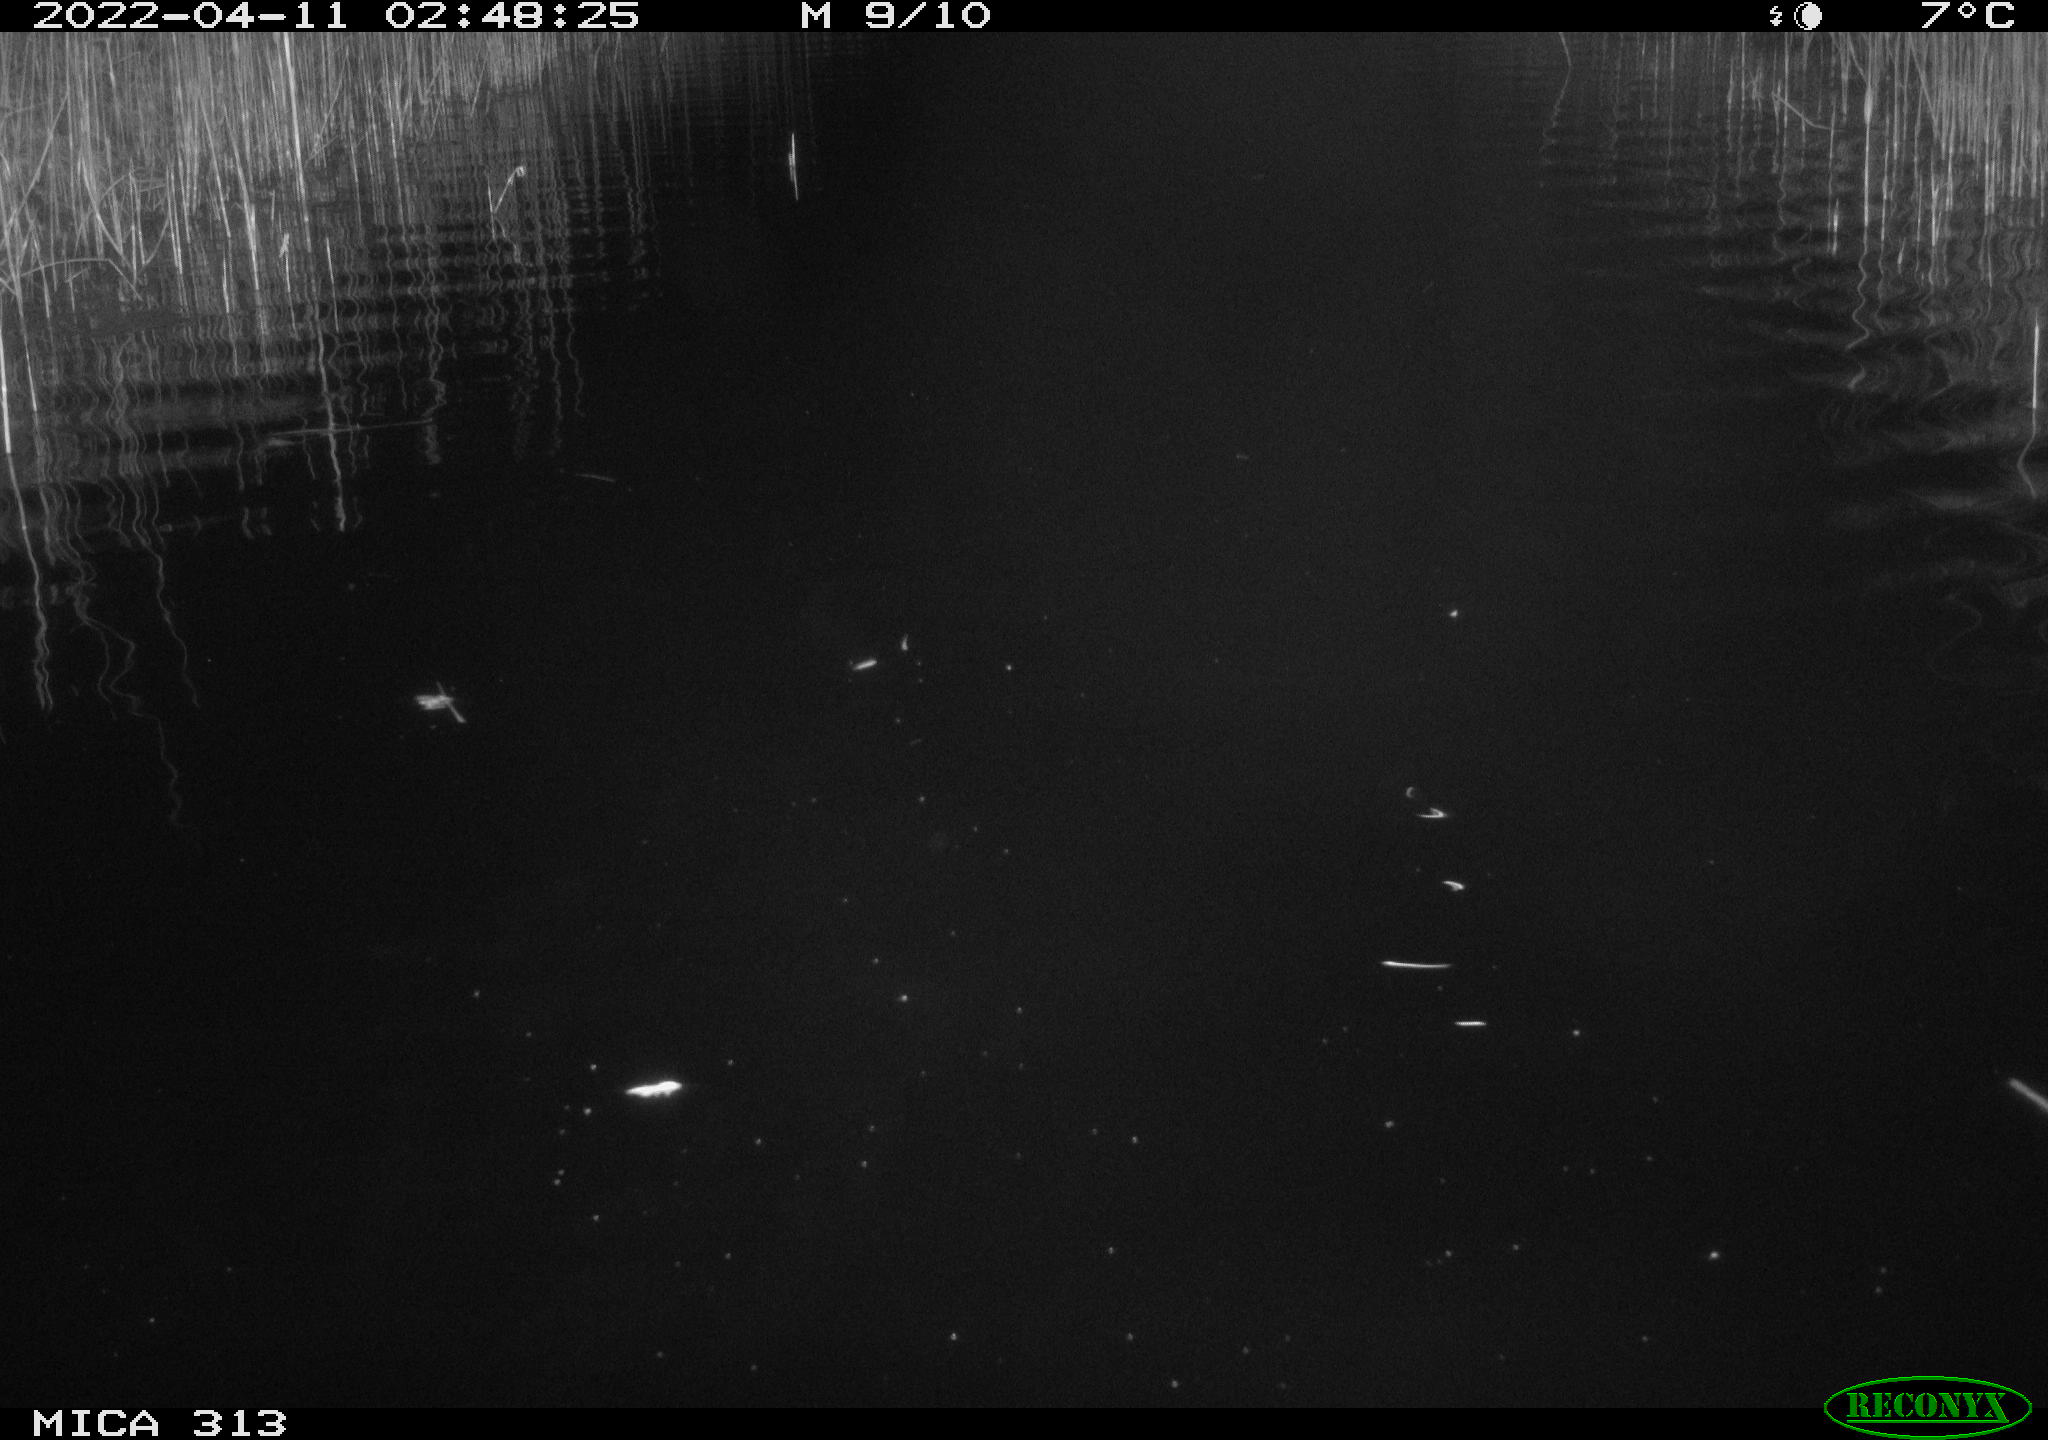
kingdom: Animalia
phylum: Chordata
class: Mammalia
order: Rodentia
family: Cricetidae
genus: Ondatra
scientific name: Ondatra zibethicus
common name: Muskrat
